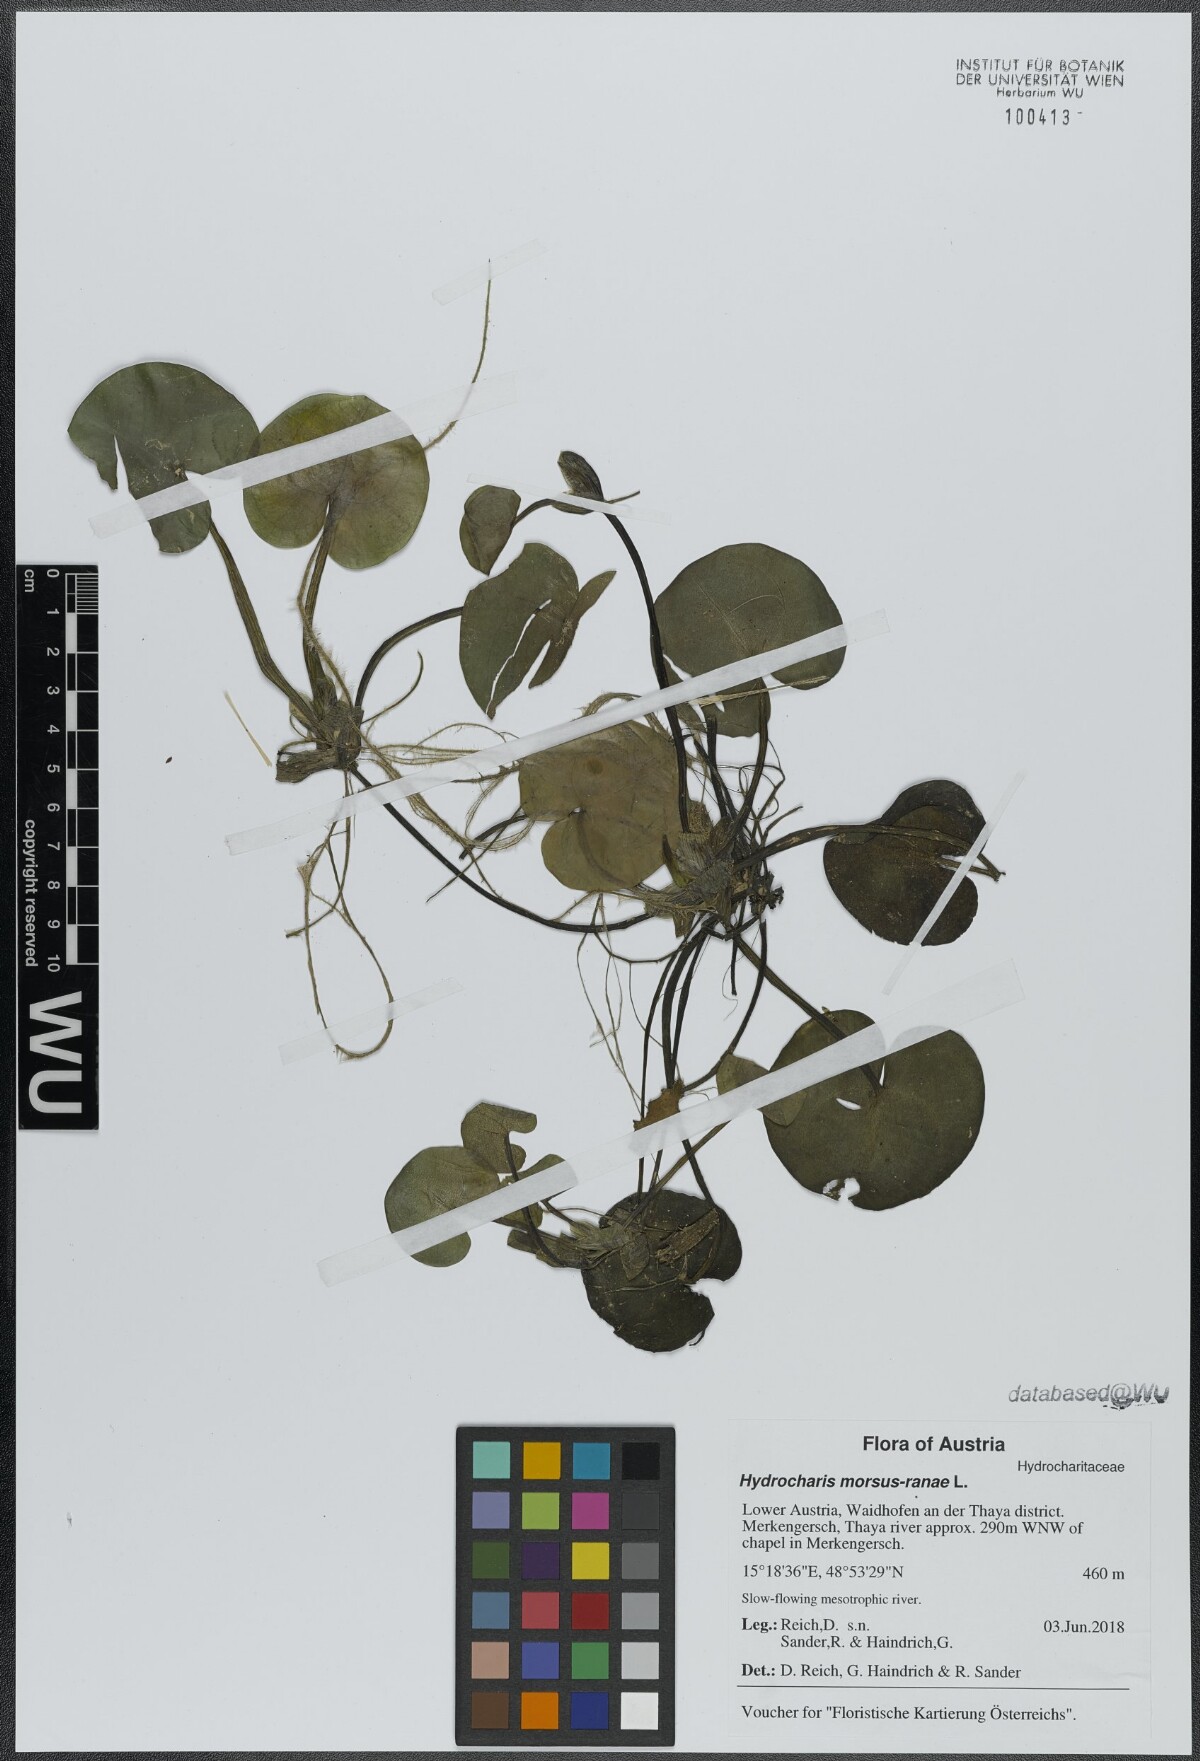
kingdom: Plantae
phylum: Tracheophyta
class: Liliopsida
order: Alismatales
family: Hydrocharitaceae
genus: Hydrocharis
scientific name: Hydrocharis morsus-ranae
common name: Frogbit
